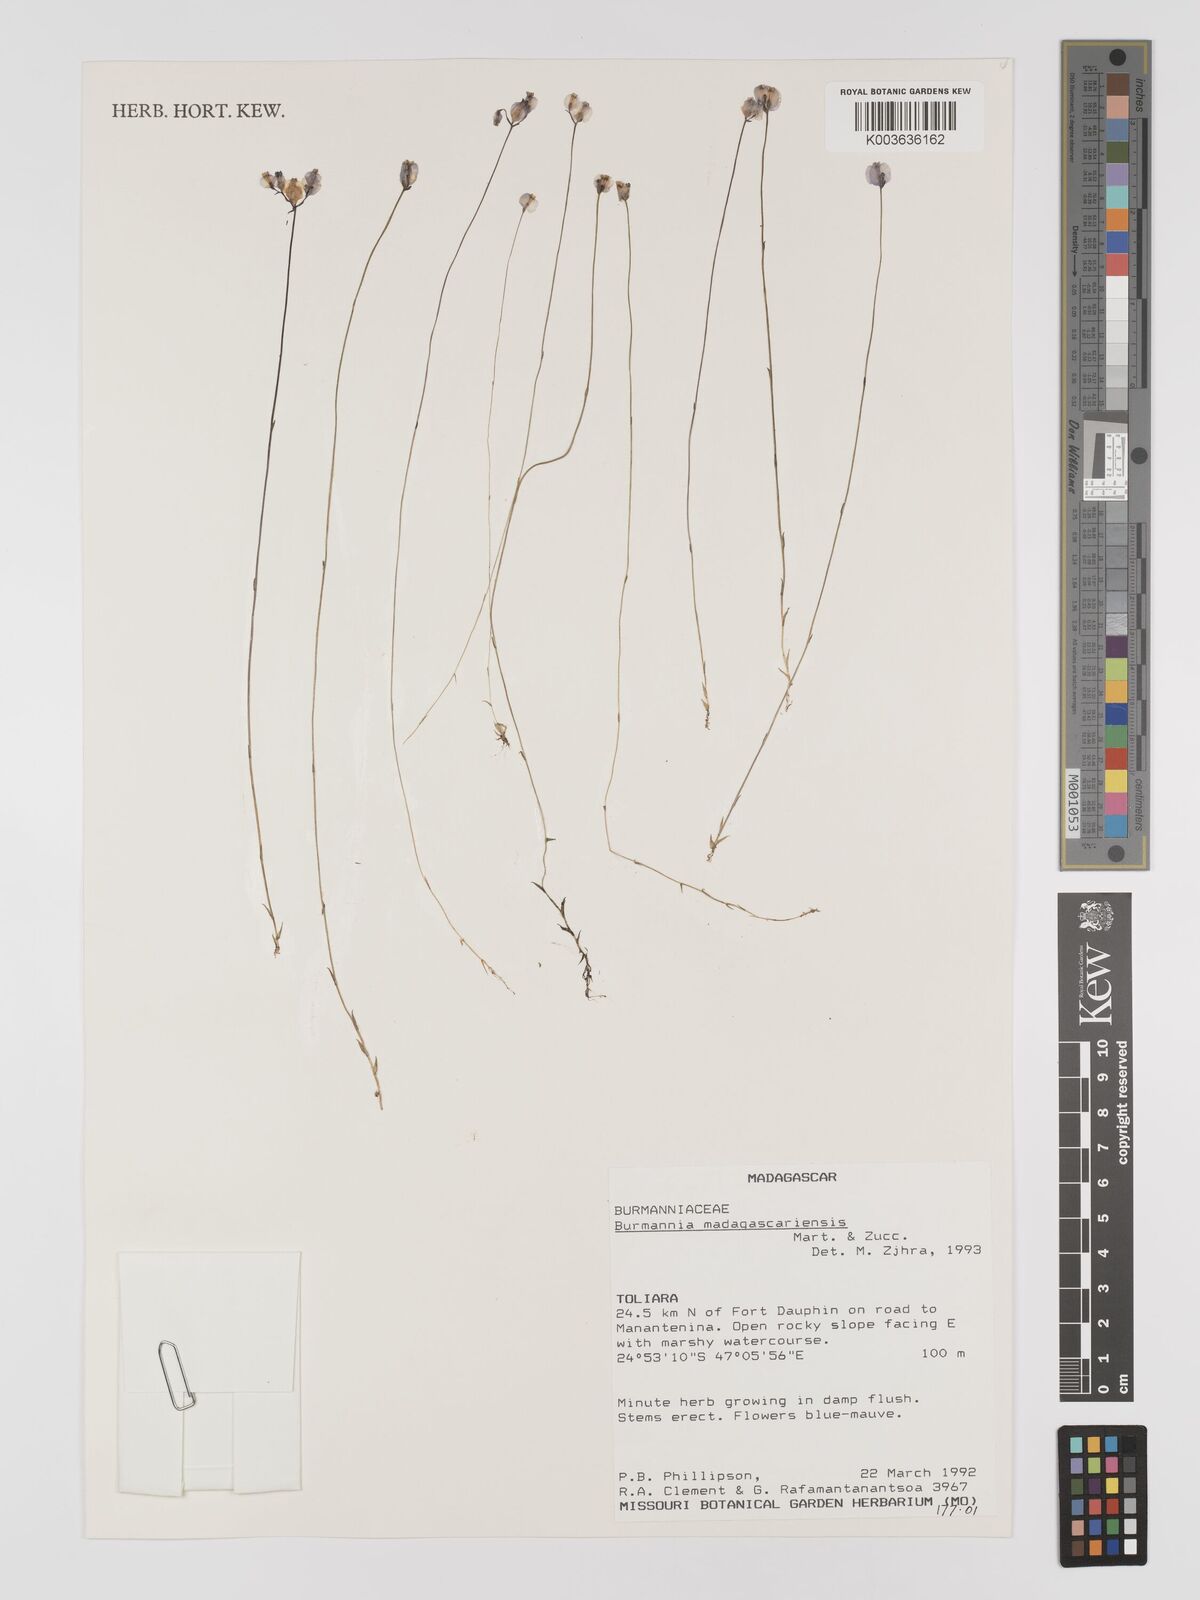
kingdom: Plantae
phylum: Tracheophyta
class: Liliopsida
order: Dioscoreales
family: Burmanniaceae
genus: Burmannia
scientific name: Burmannia madagascariensis
